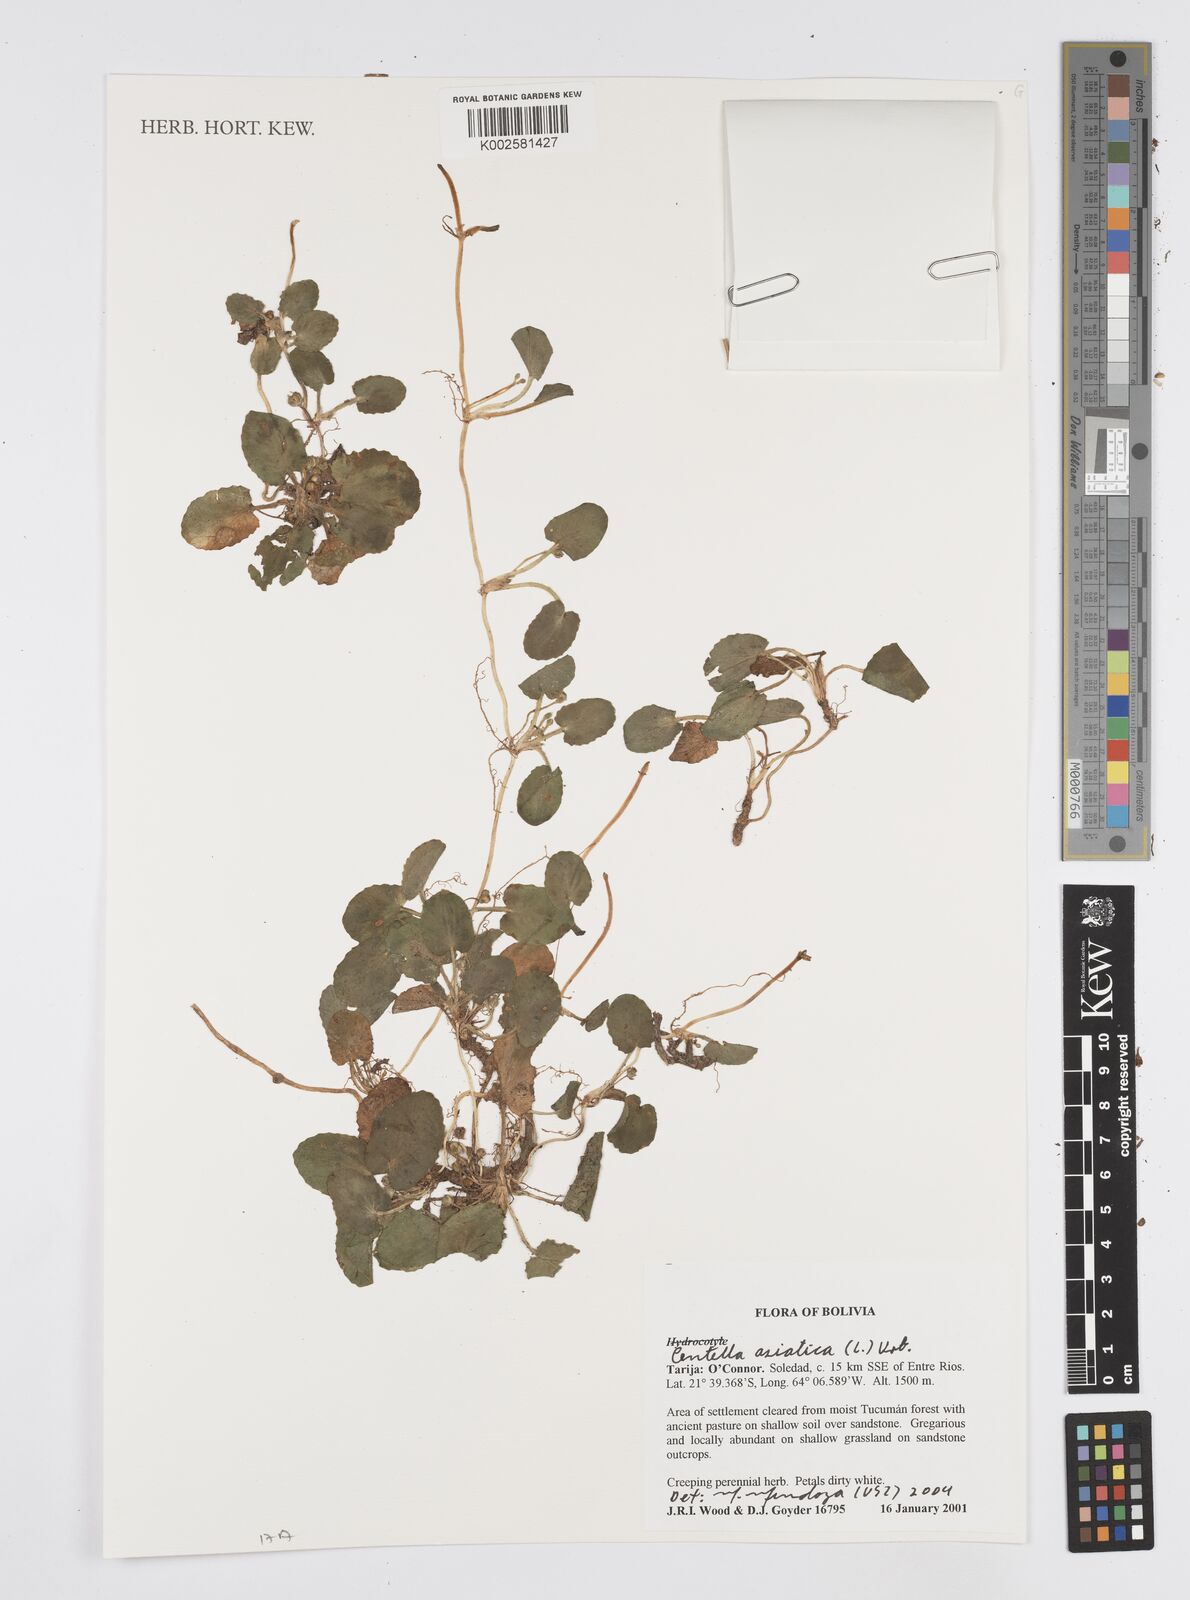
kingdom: Plantae
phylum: Tracheophyta
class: Magnoliopsida
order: Apiales
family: Apiaceae
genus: Centella
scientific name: Centella asiatica
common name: Spadeleaf
